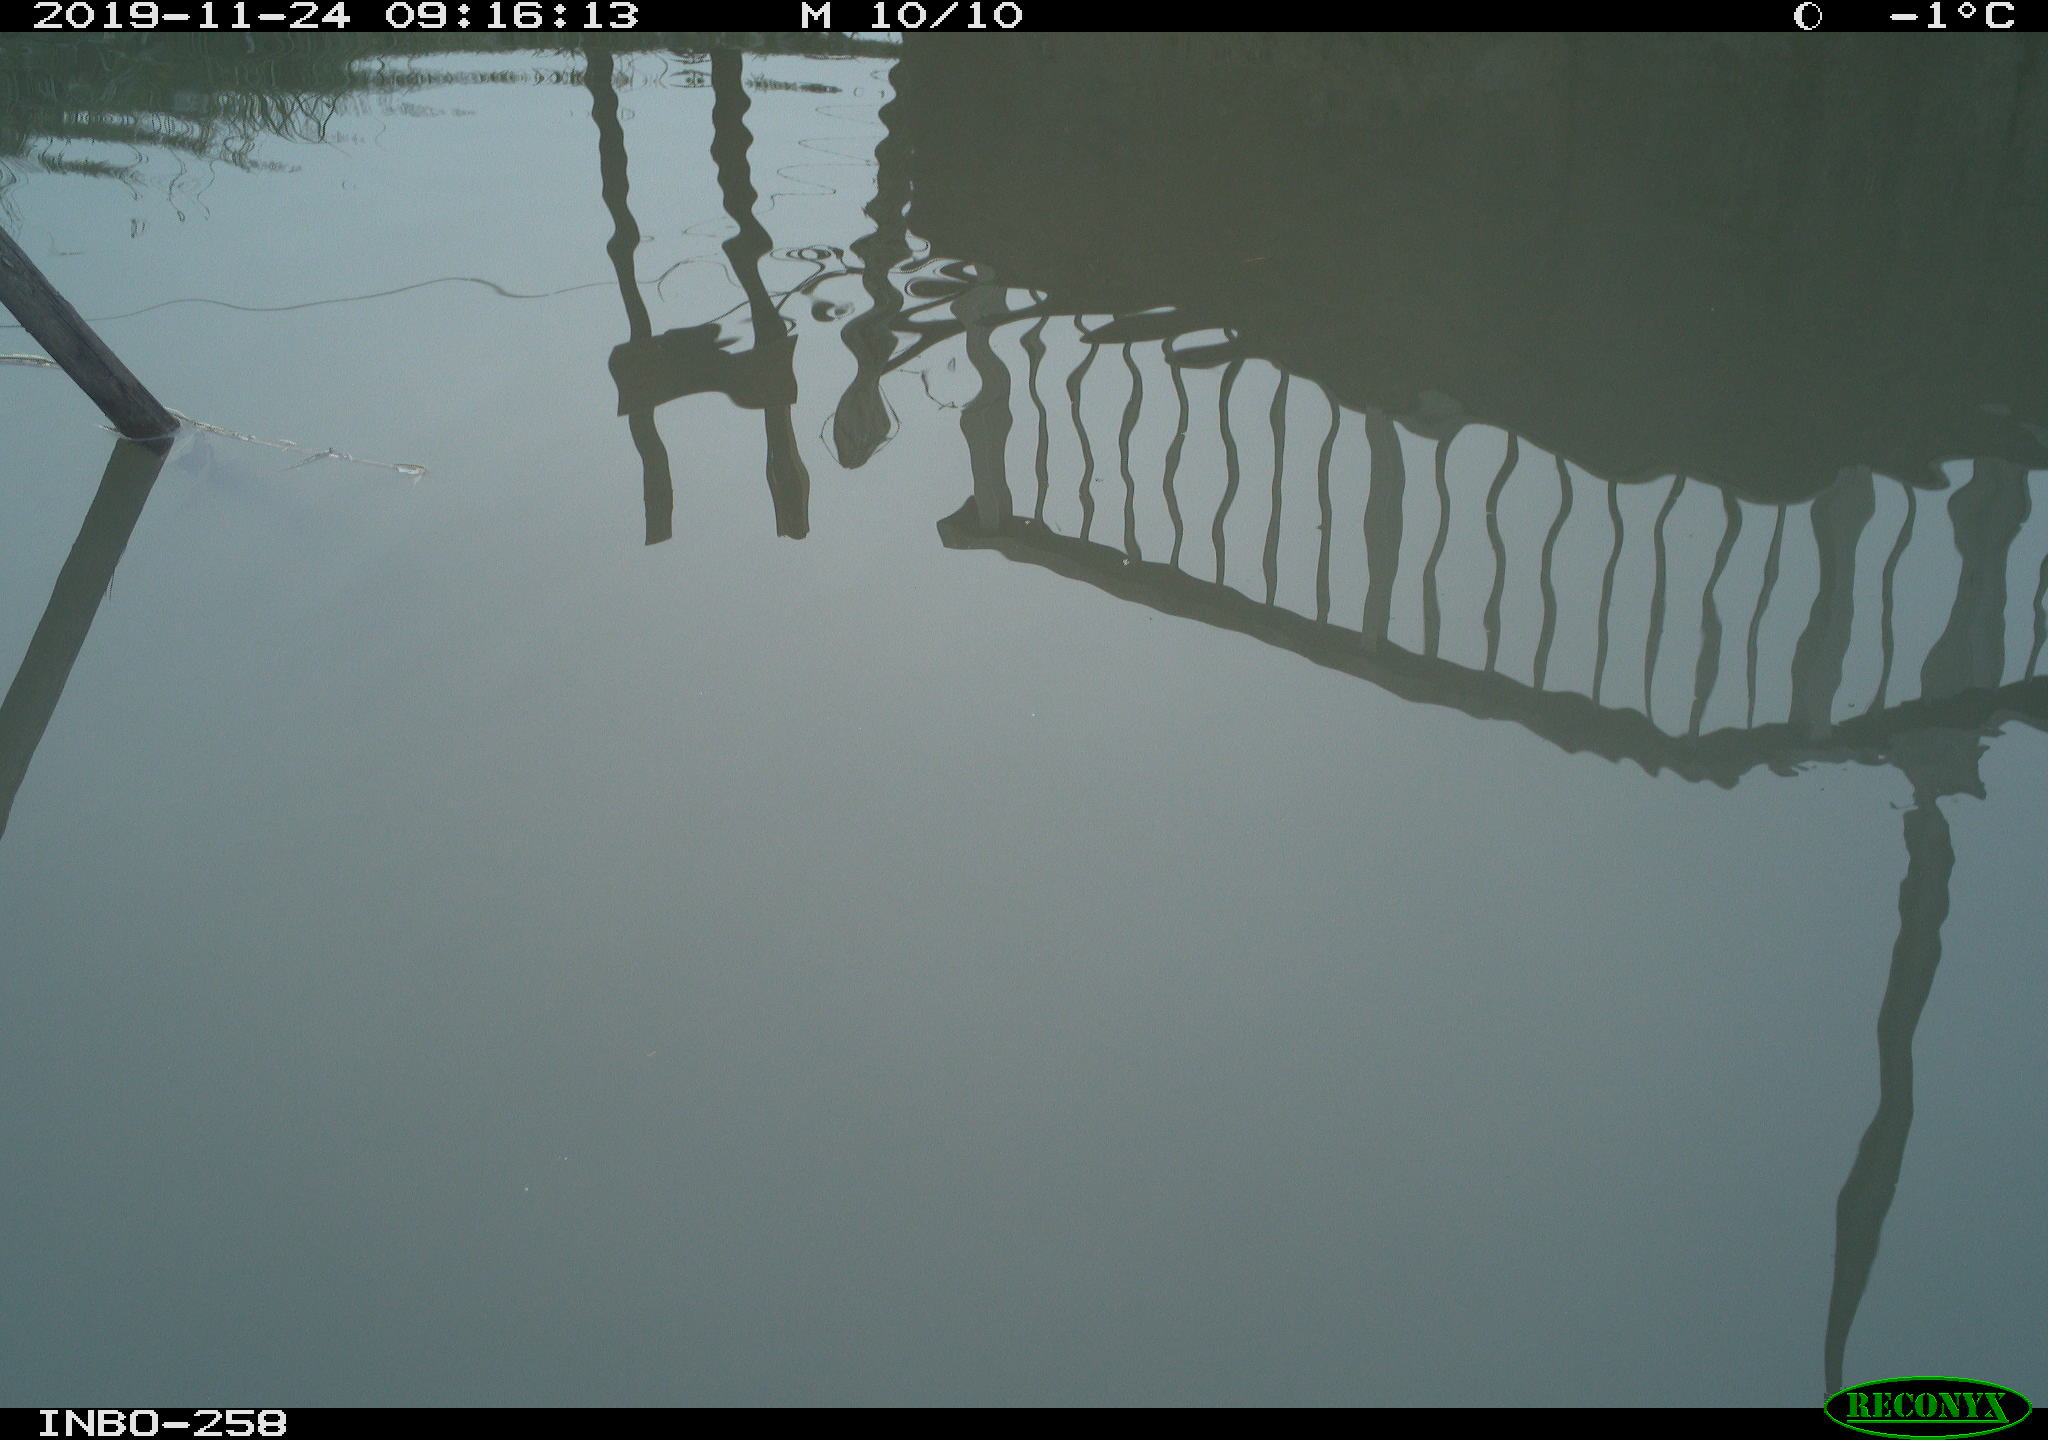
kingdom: Animalia
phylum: Chordata
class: Aves
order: Gruiformes
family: Rallidae
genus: Gallinula
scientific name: Gallinula chloropus
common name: Common moorhen
